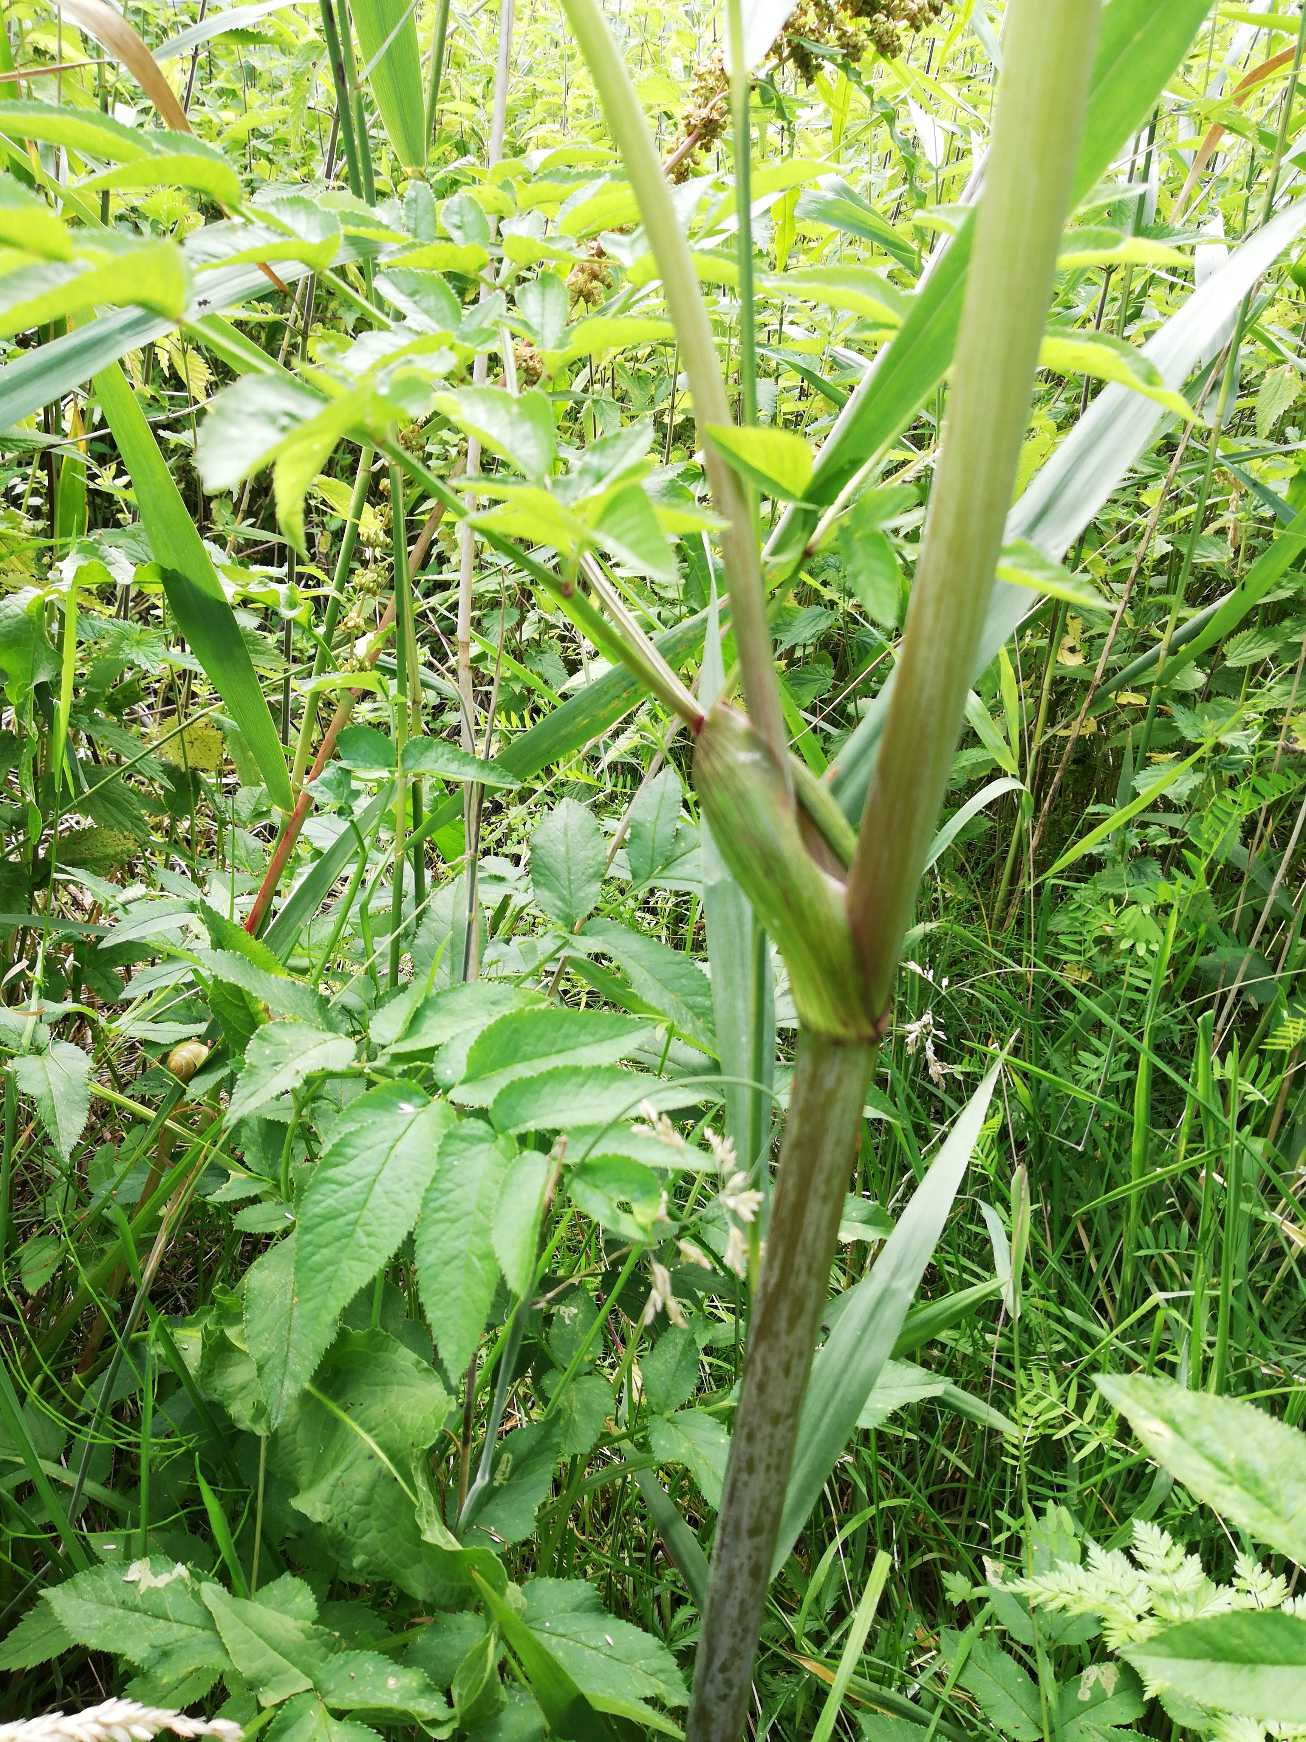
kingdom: Plantae
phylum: Tracheophyta
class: Magnoliopsida
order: Apiales
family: Apiaceae
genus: Angelica
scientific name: Angelica sylvestris
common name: Angelik
